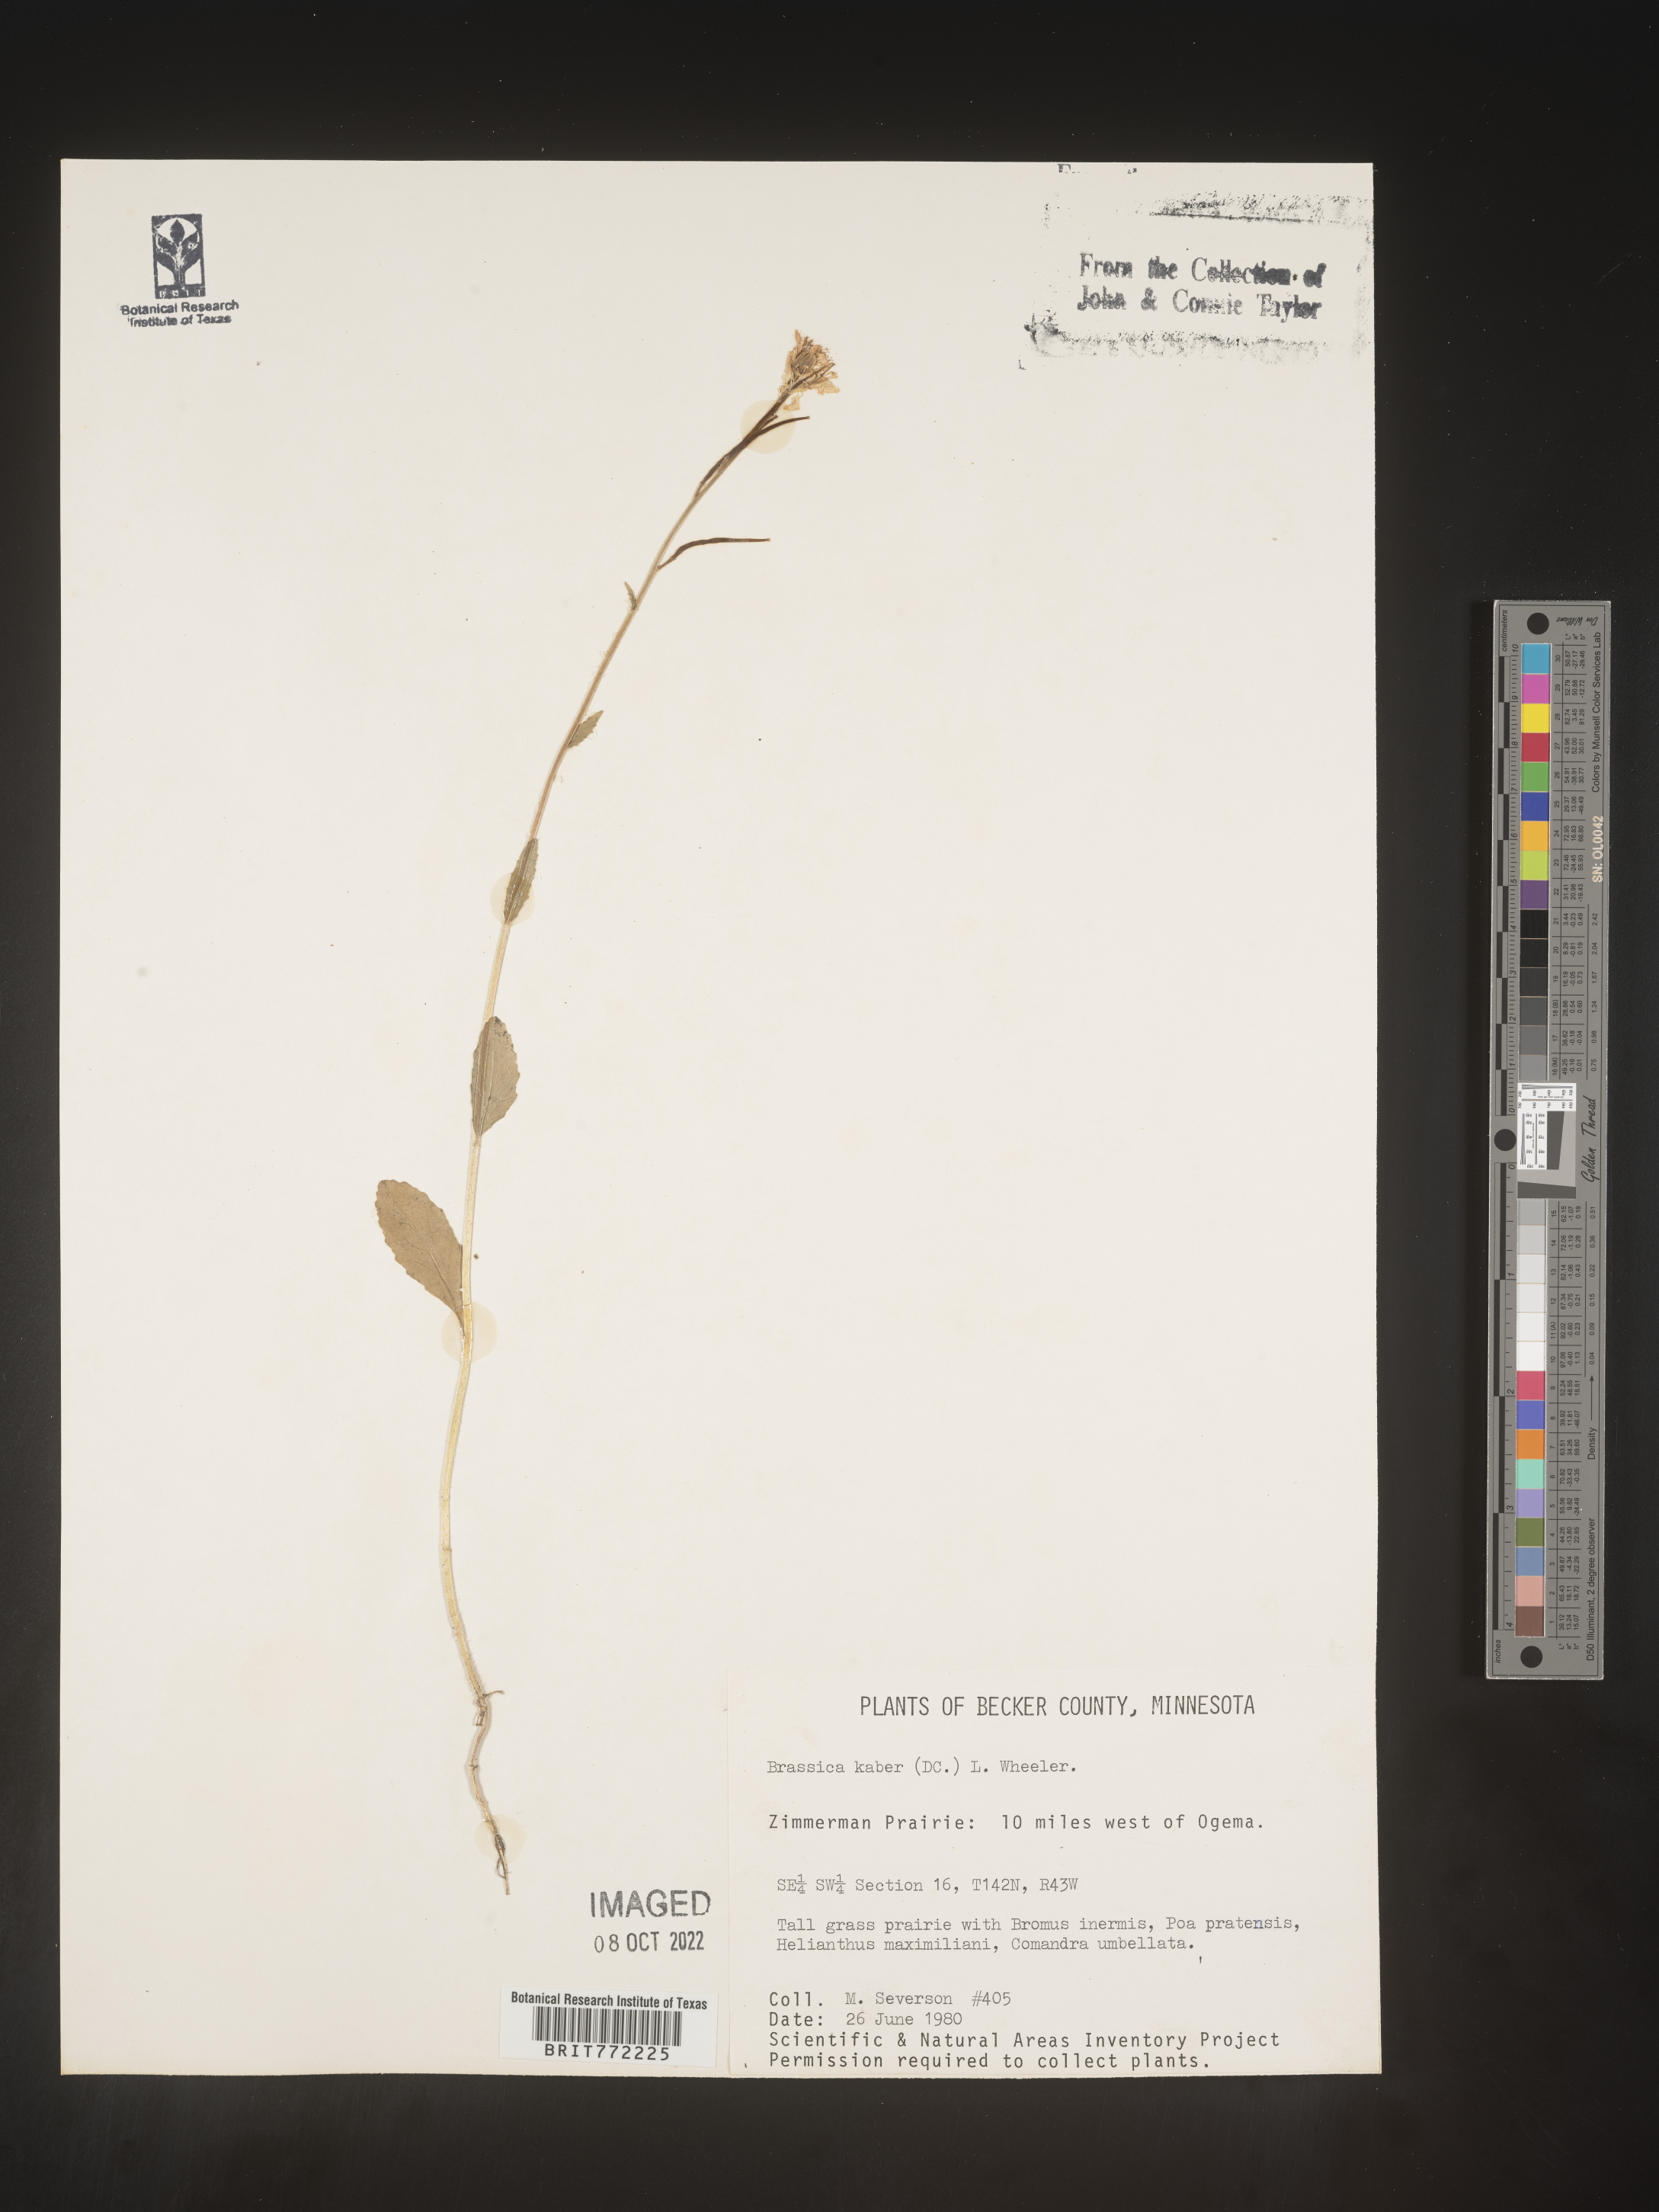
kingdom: Plantae
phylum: Tracheophyta
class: Magnoliopsida
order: Brassicales
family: Brassicaceae
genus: Sinapis
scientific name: Sinapis arvensis
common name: Charlock
